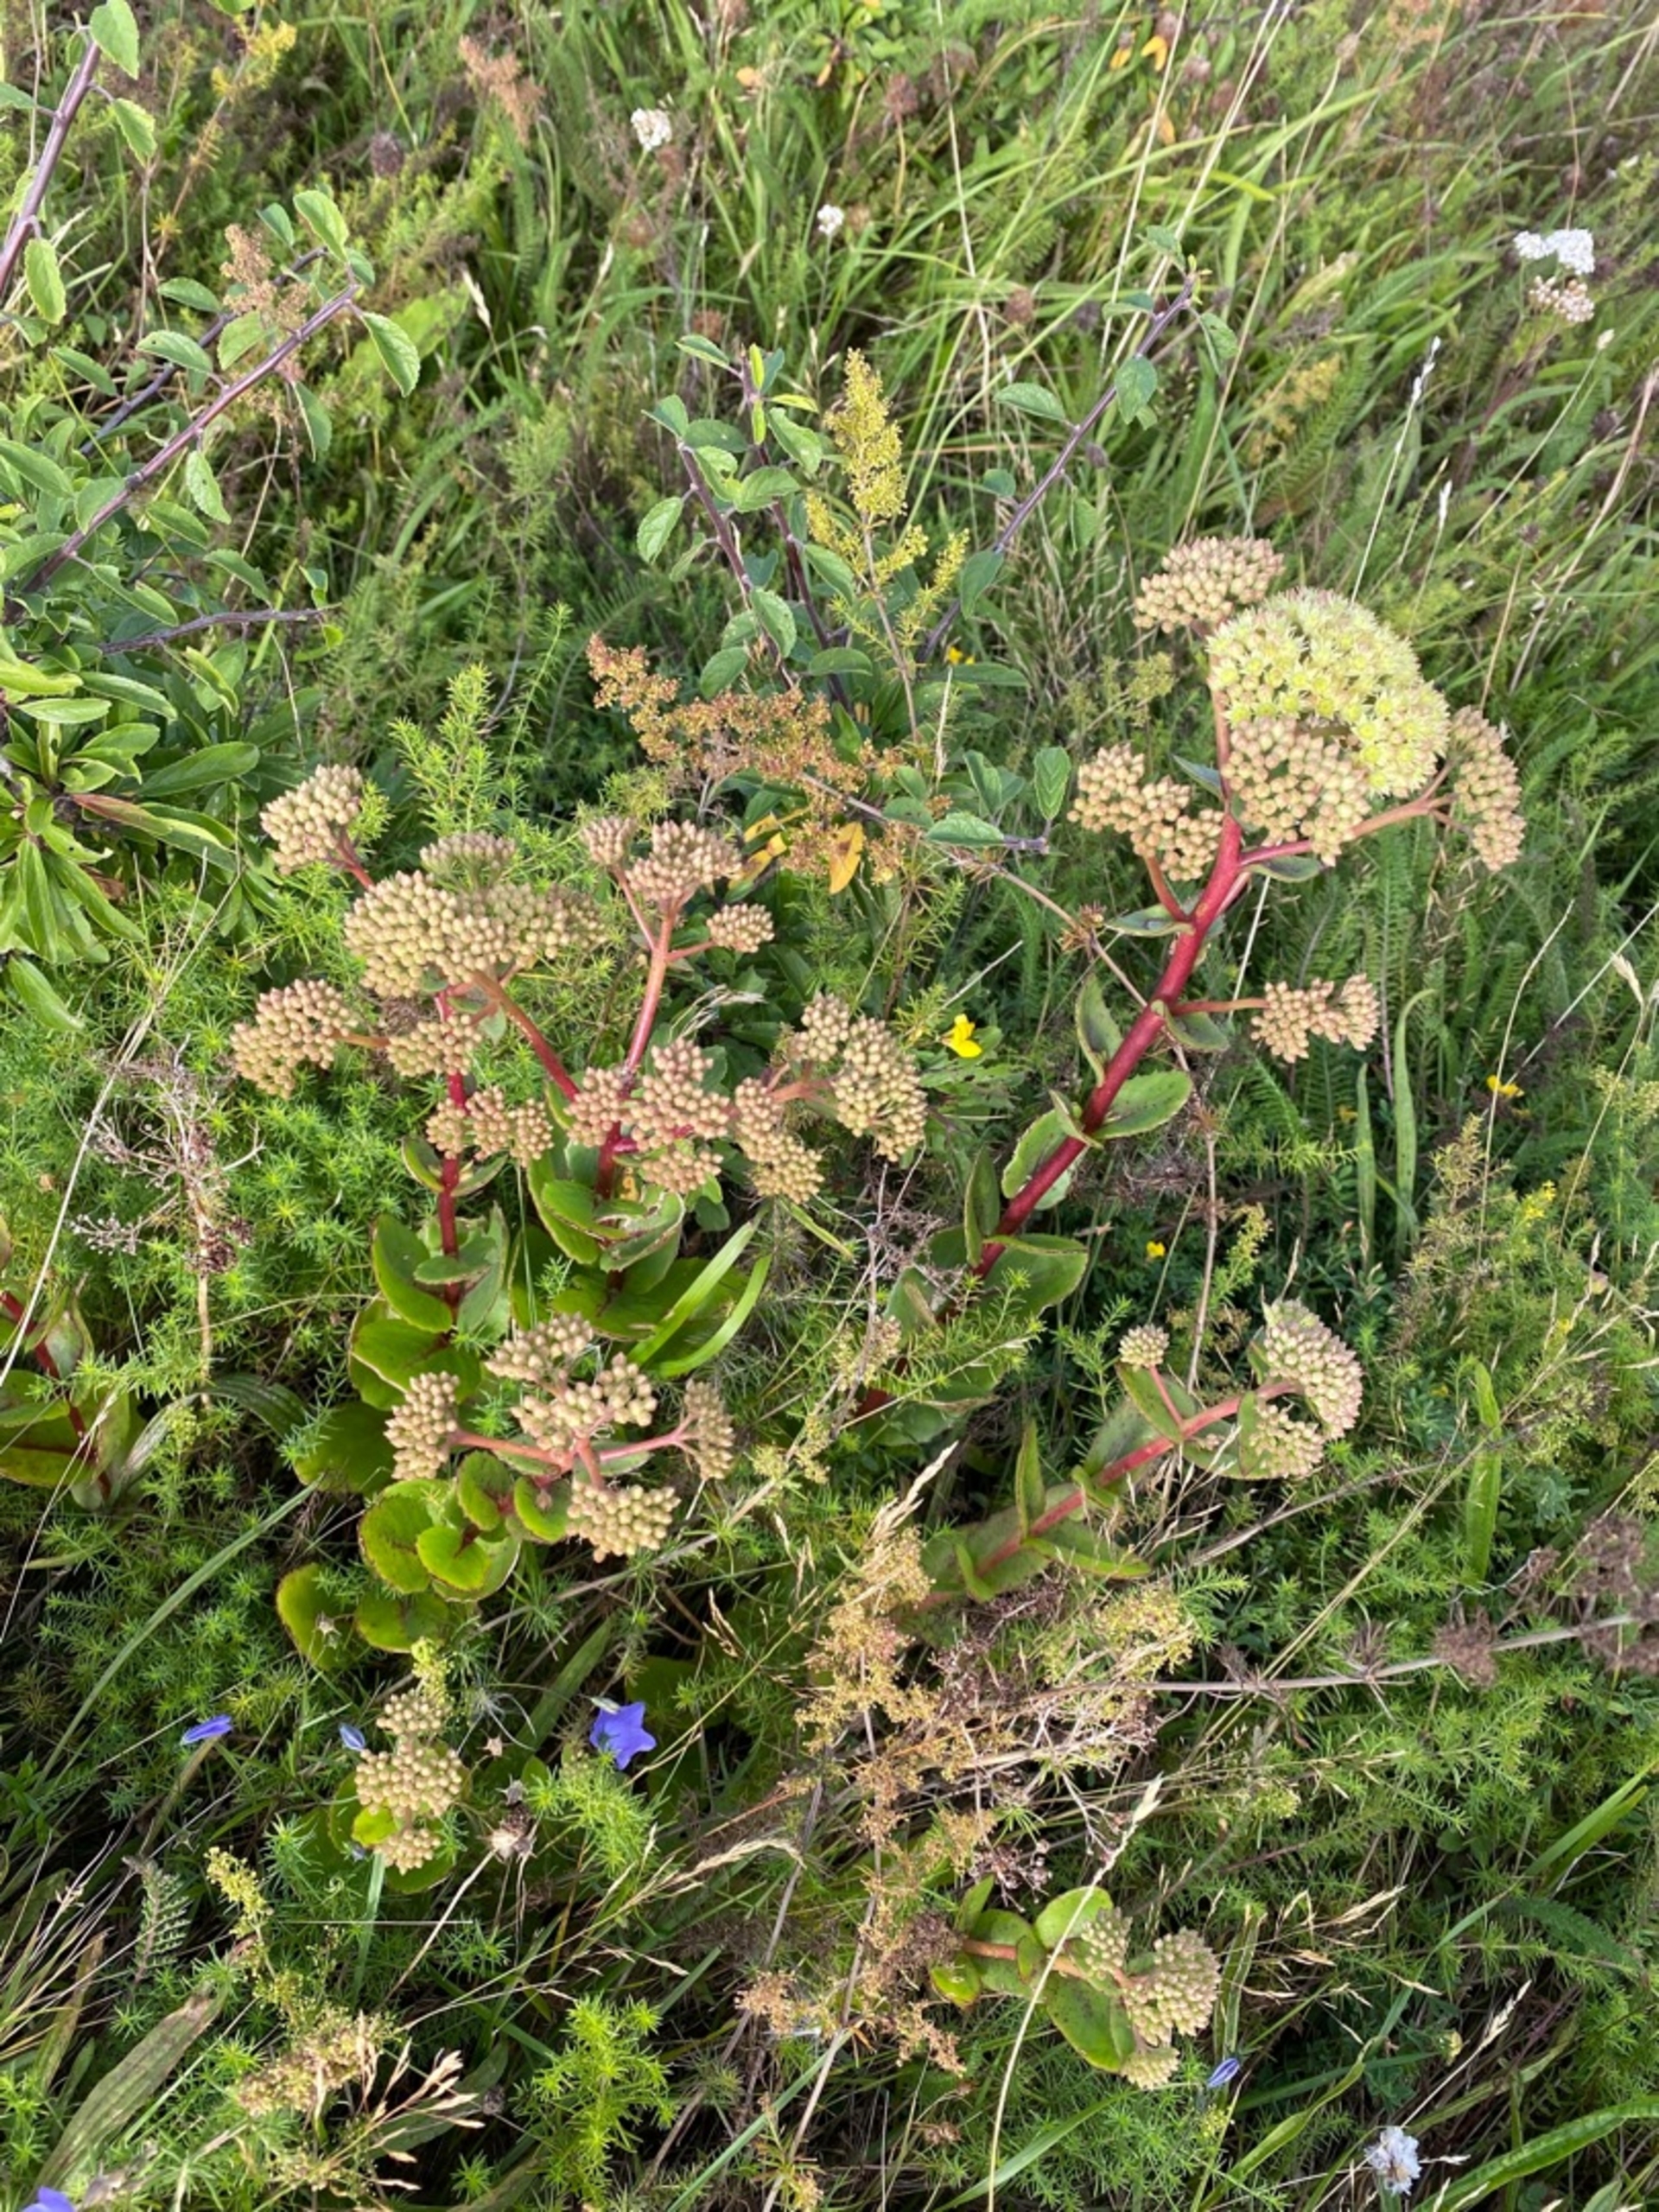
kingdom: Plantae
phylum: Tracheophyta
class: Magnoliopsida
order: Saxifragales
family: Crassulaceae
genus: Hylotelephium
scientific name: Hylotelephium telephium
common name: Sankthansurt
